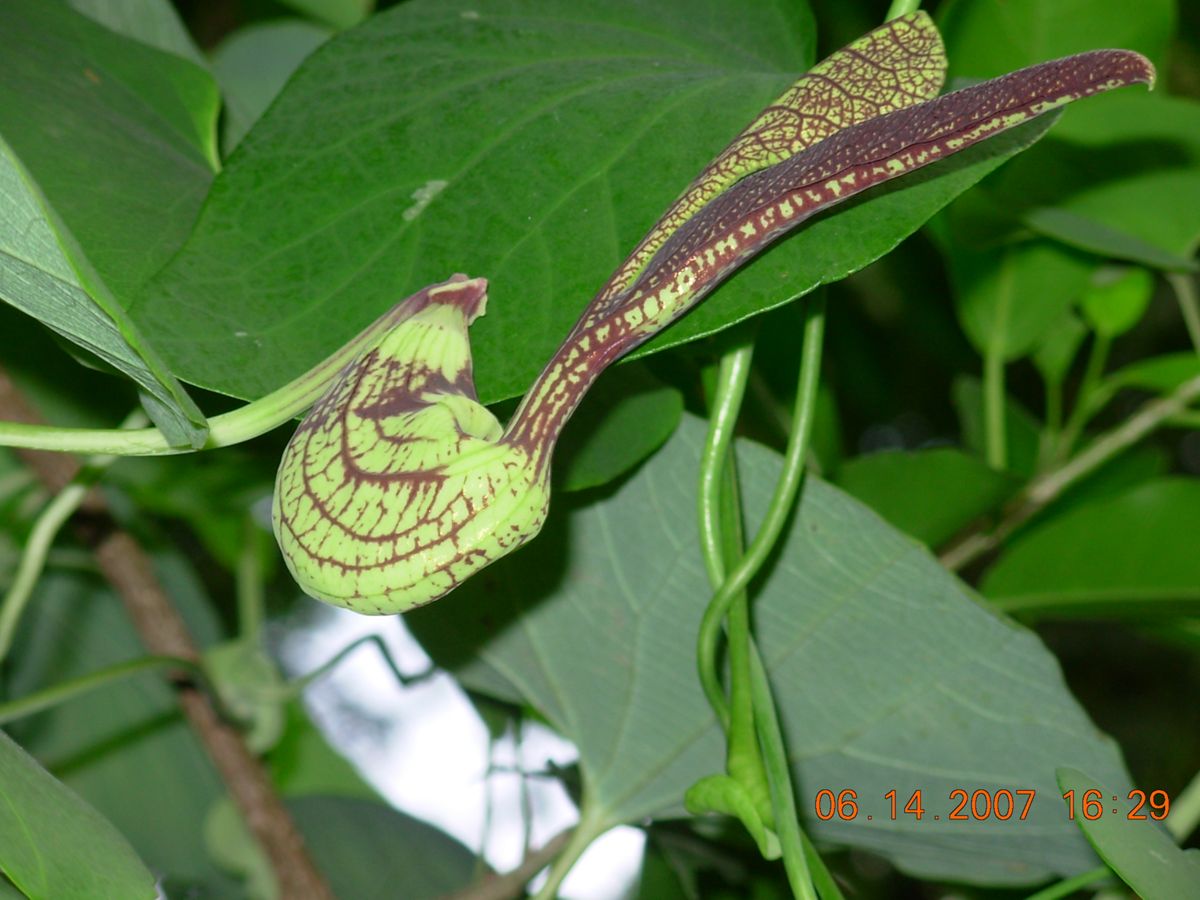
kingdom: Plantae
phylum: Tracheophyta
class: Magnoliopsida
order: Piperales
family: Aristolochiaceae
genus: Aristolochia
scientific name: Aristolochia ringens
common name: Gaping dutchman's pipe
